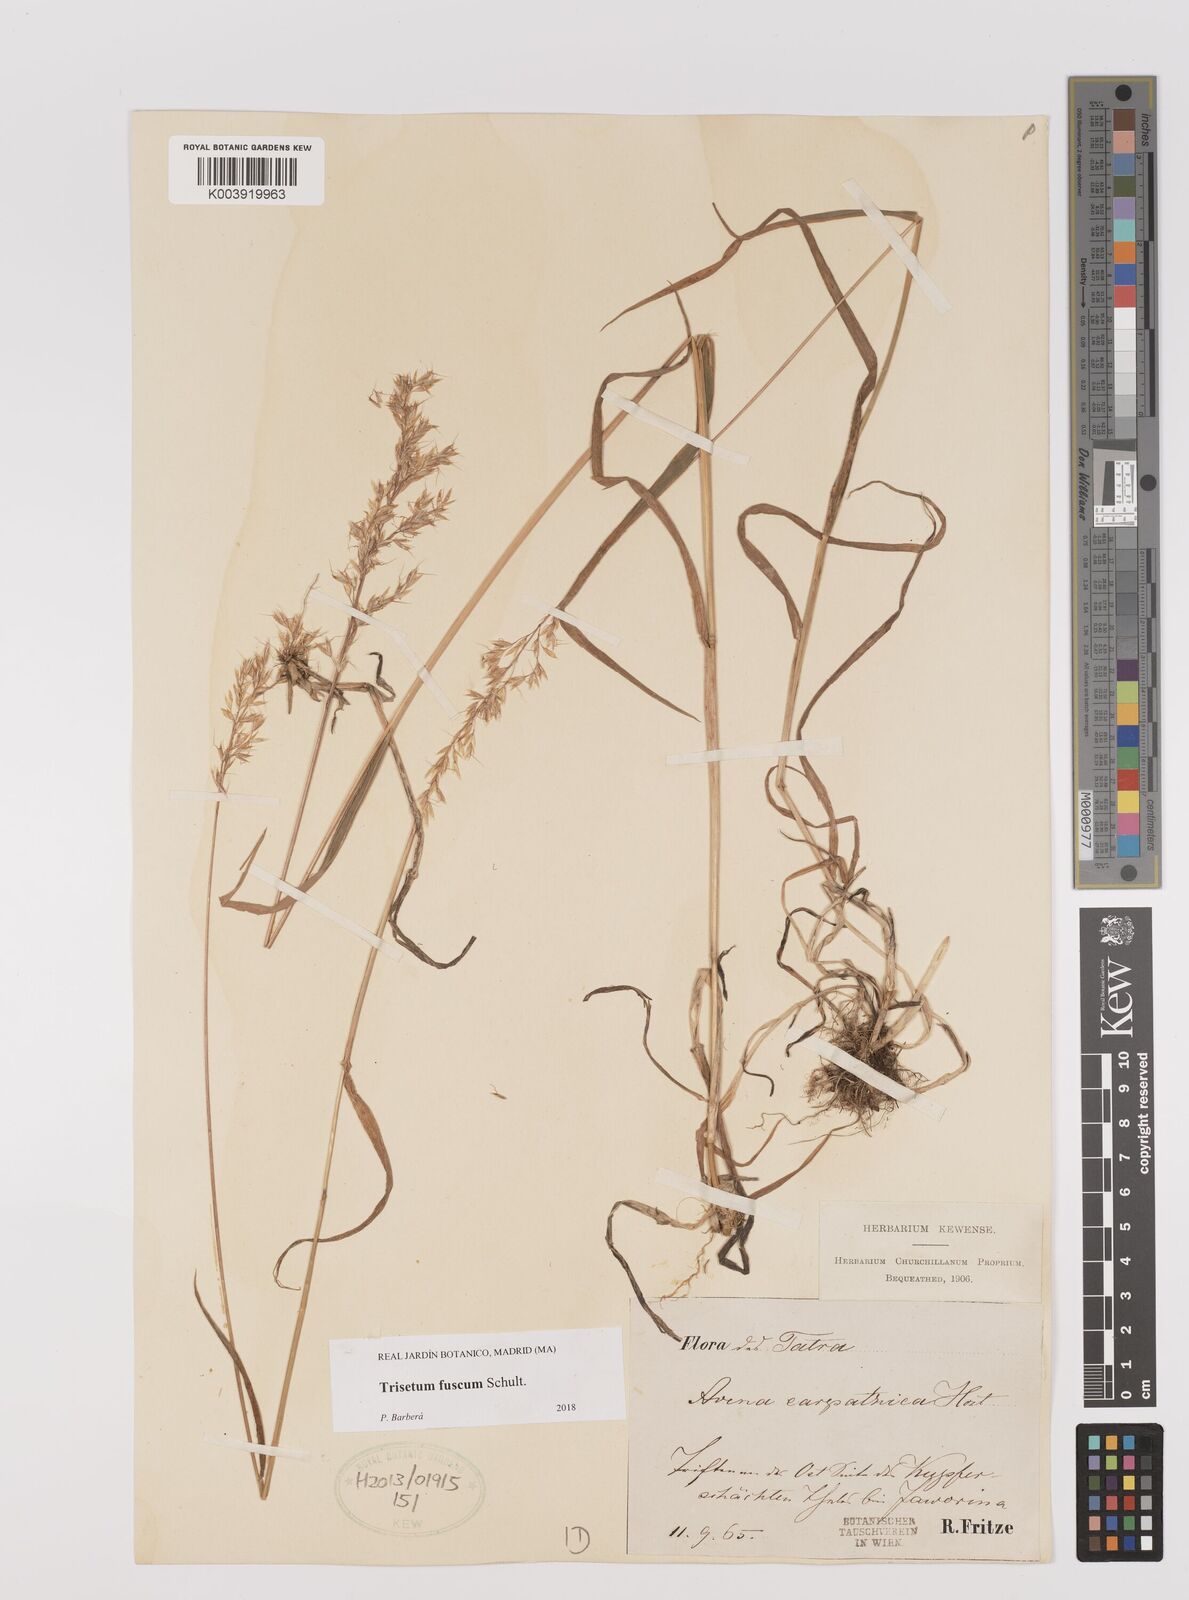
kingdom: Plantae
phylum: Tracheophyta
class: Liliopsida
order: Poales
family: Poaceae
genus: Trisetum
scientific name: Trisetum fuscum
